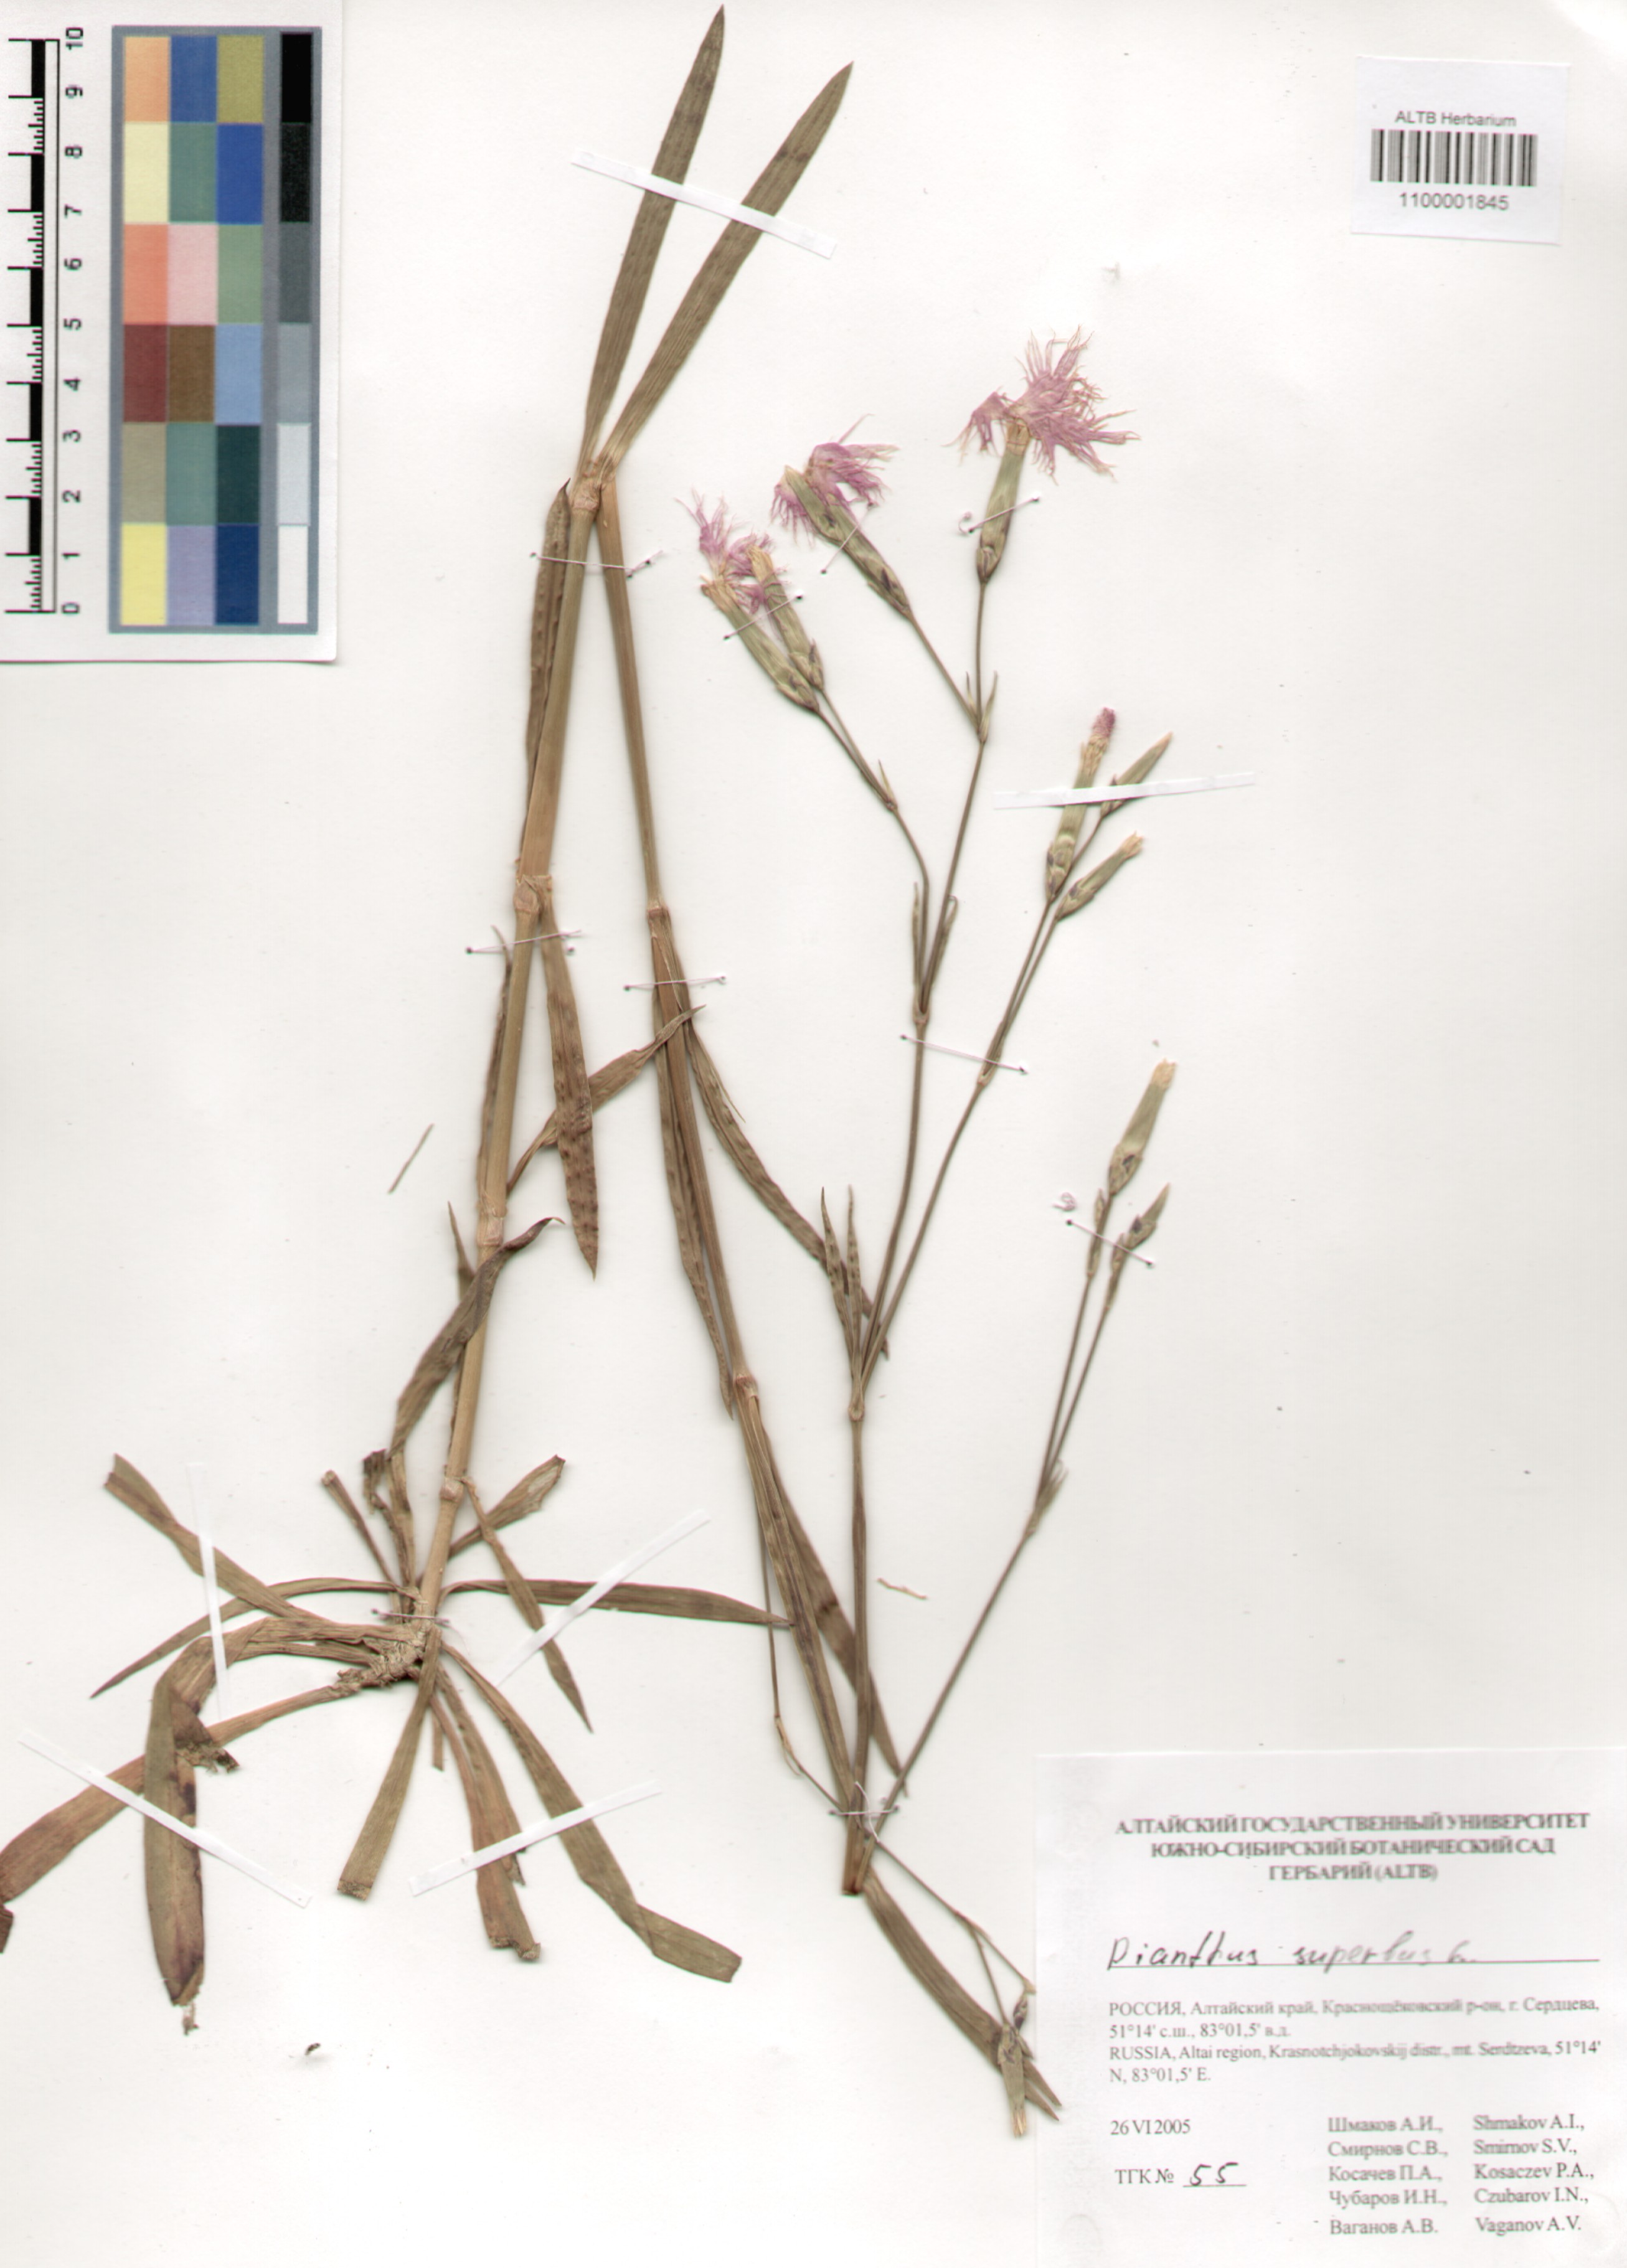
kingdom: Plantae
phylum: Tracheophyta
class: Magnoliopsida
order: Caryophyllales
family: Caryophyllaceae
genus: Dianthus
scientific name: Dianthus superbus
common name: Fringed pink
